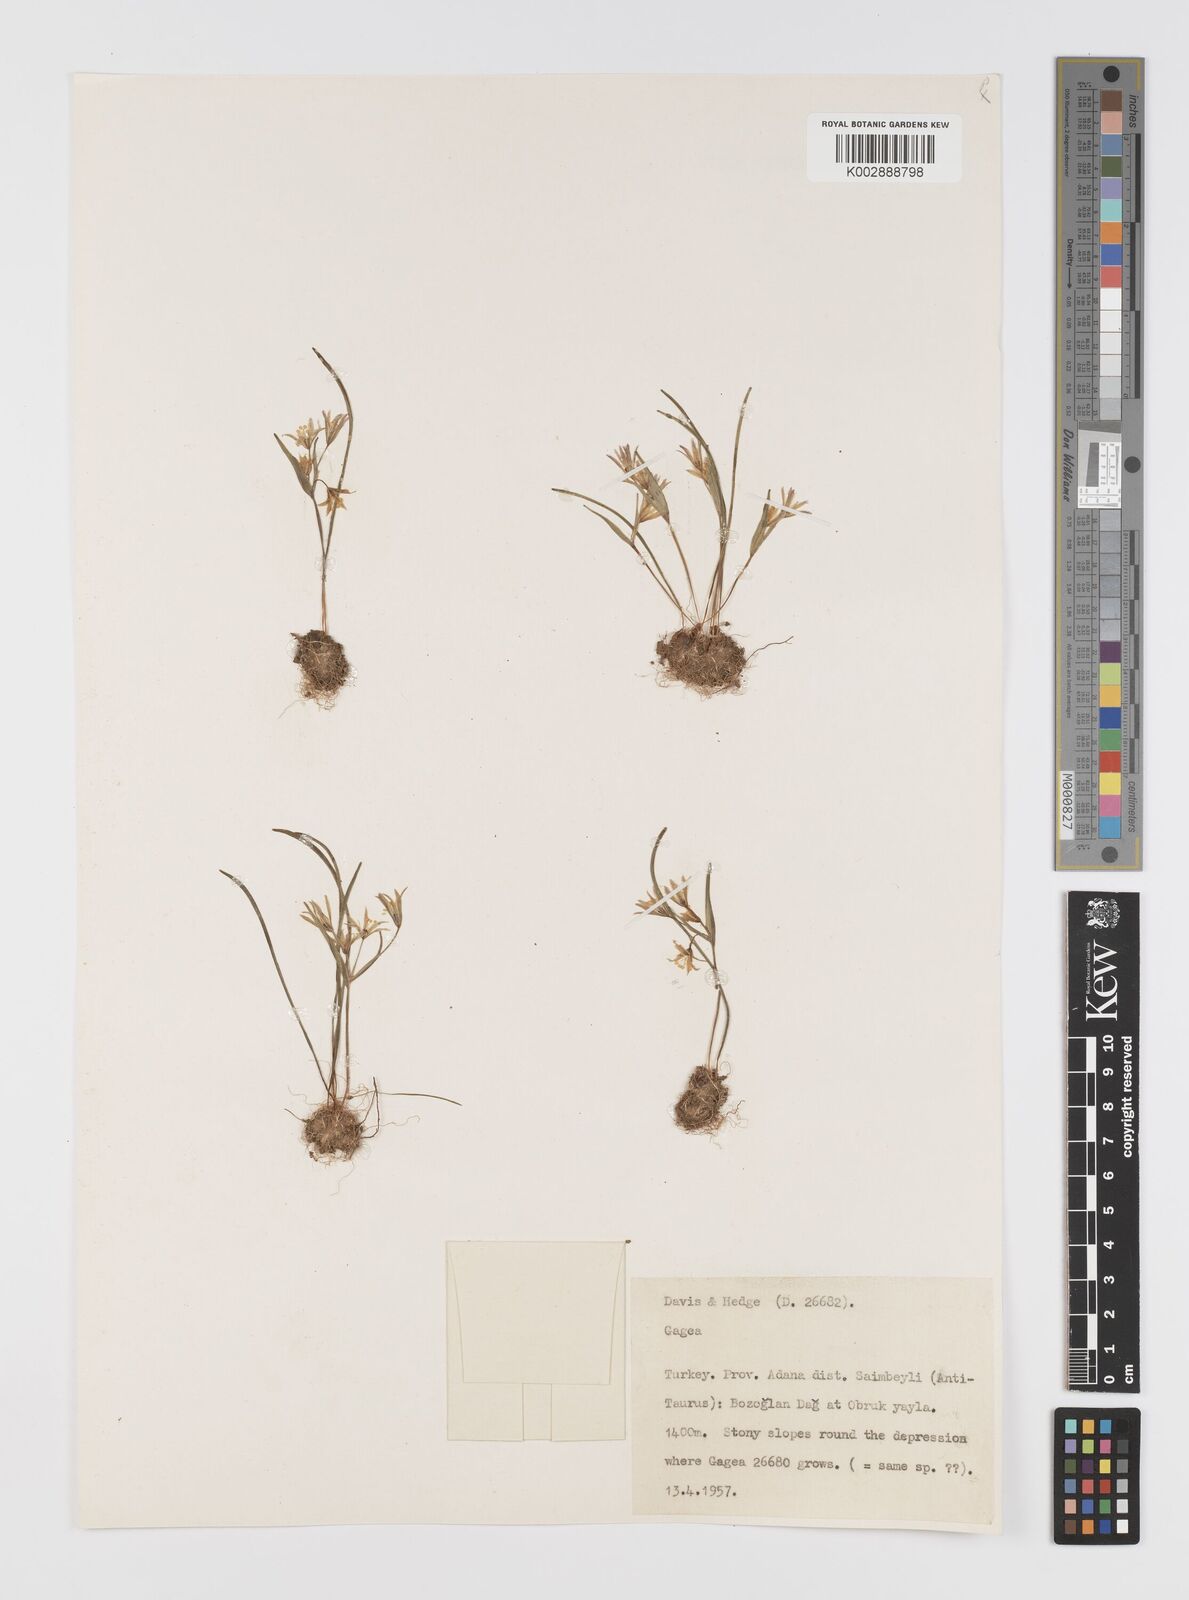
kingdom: Plantae
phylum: Tracheophyta
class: Liliopsida
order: Liliales
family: Liliaceae
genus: Gagea
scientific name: Gagea
